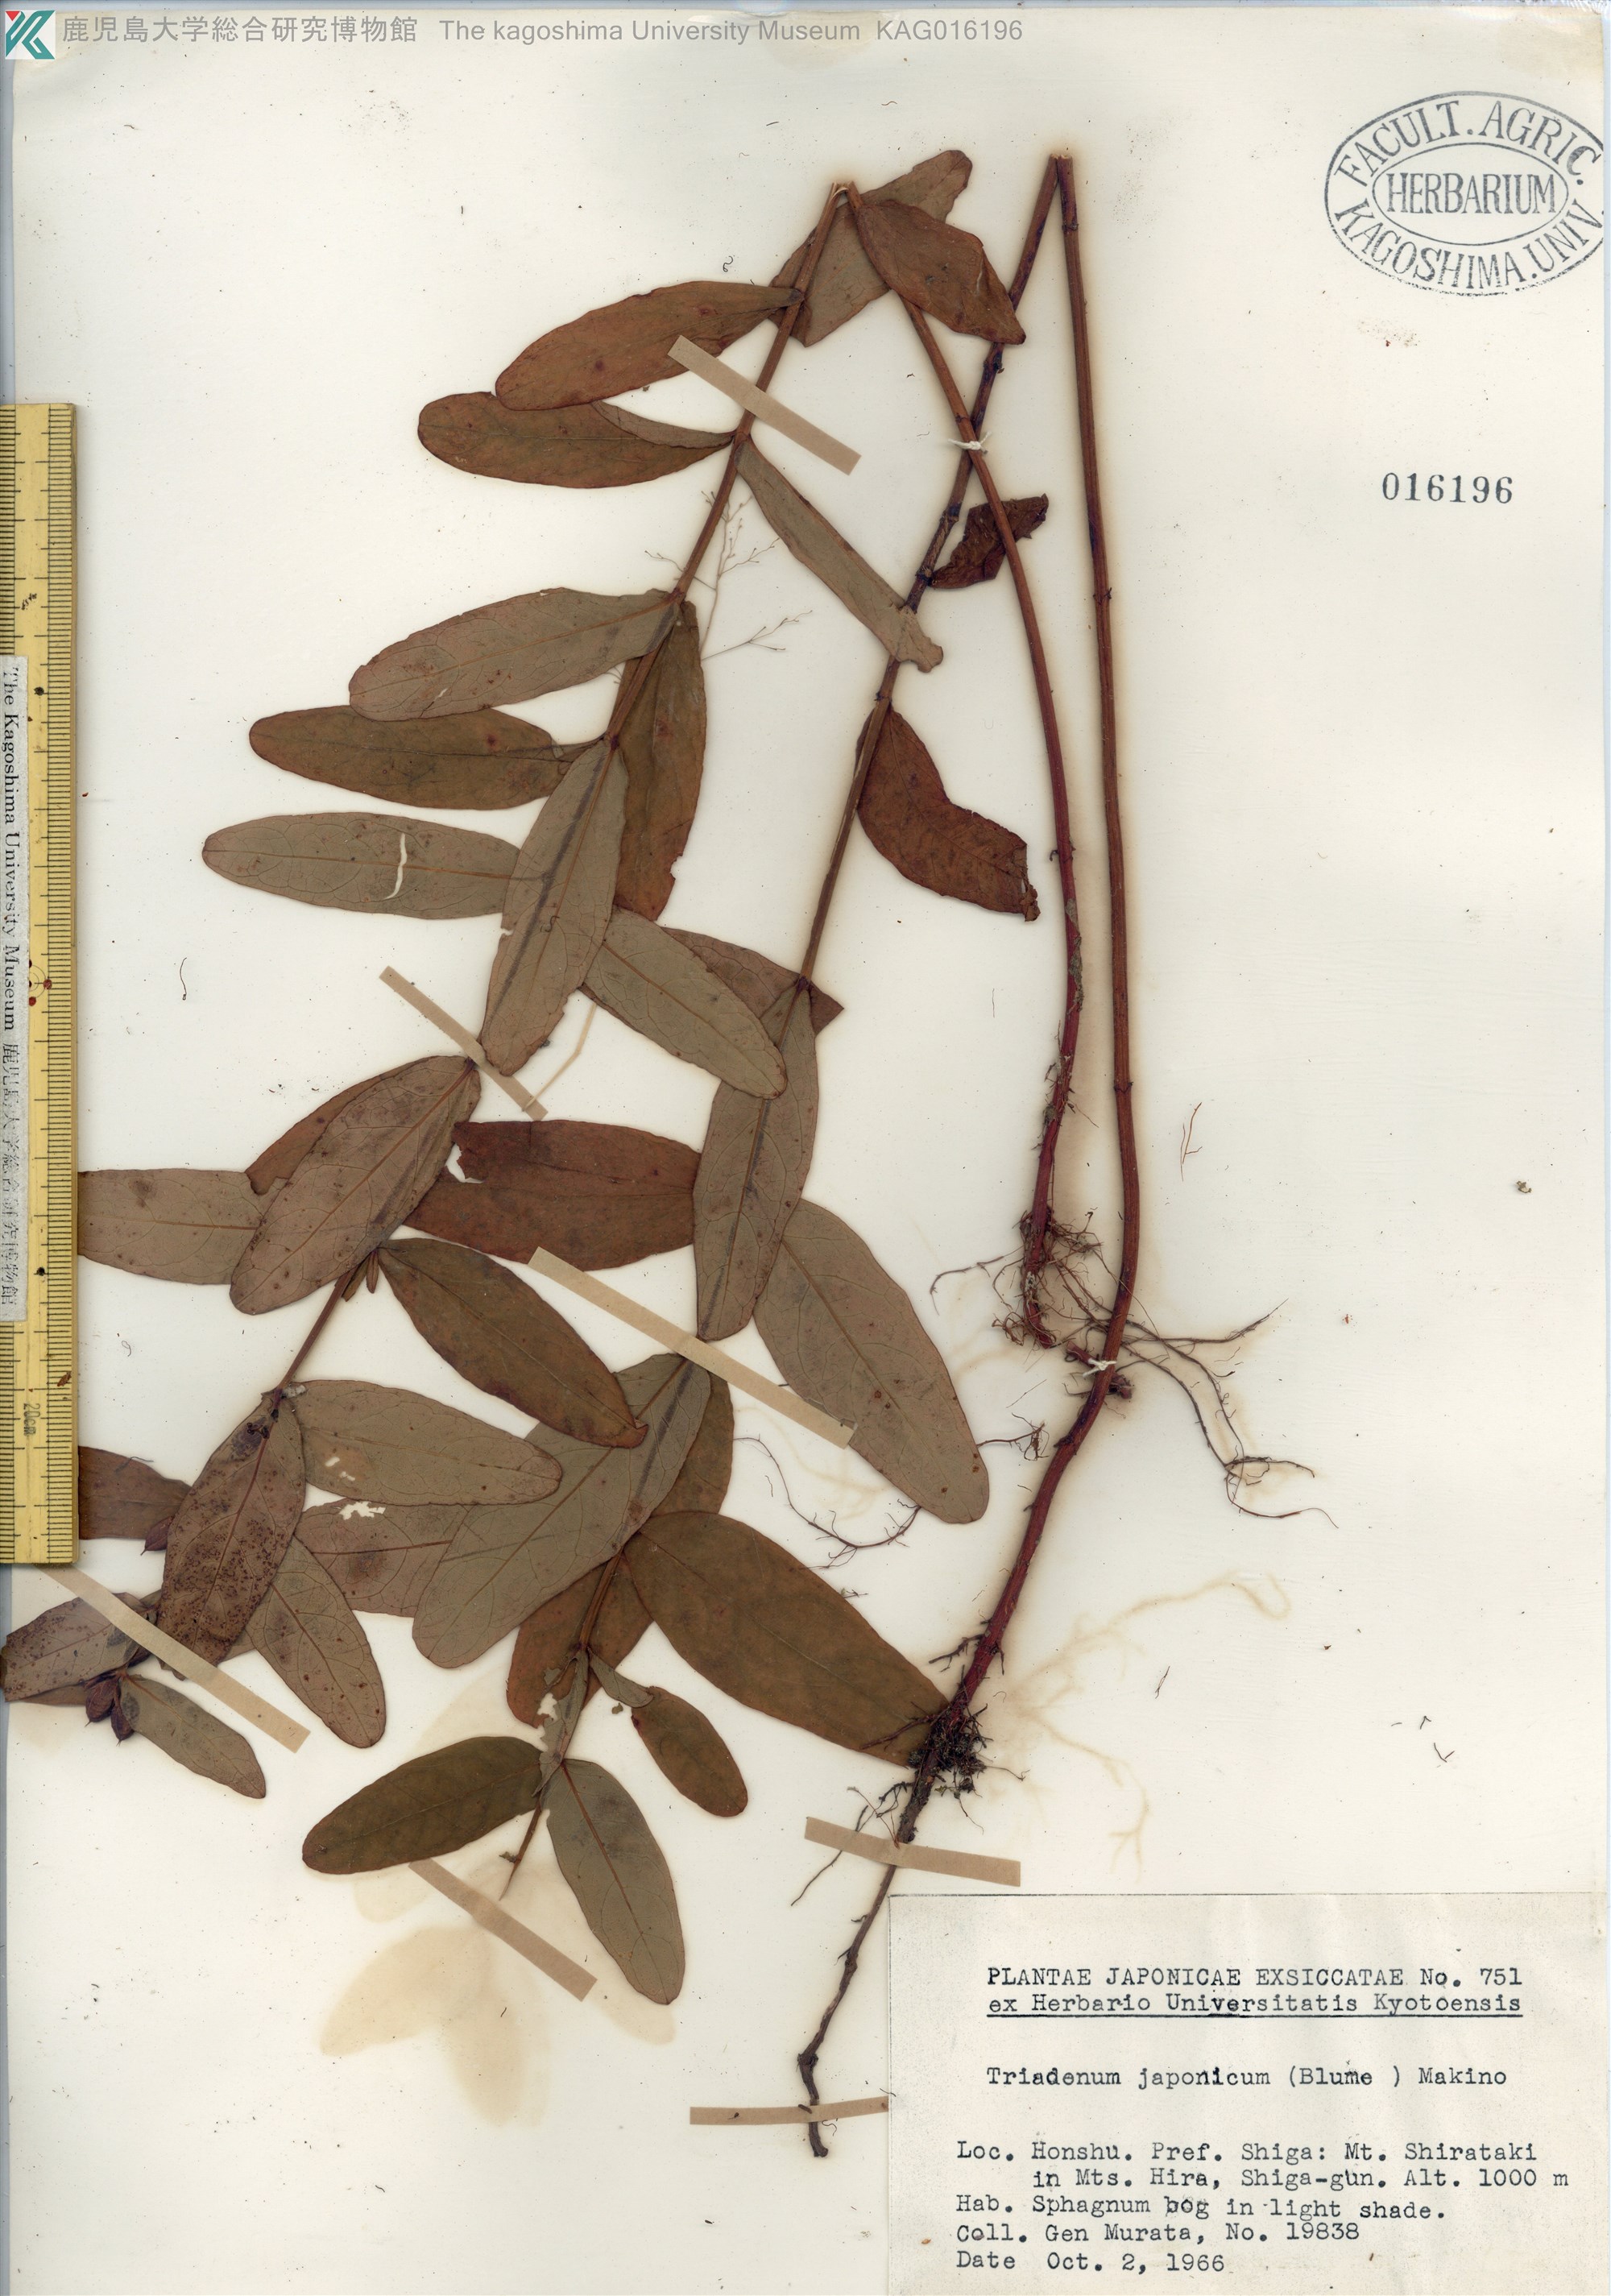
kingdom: Plantae
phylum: Tracheophyta
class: Magnoliopsida
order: Malpighiales
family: Hypericaceae
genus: Triadenum
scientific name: Triadenum japonicum
